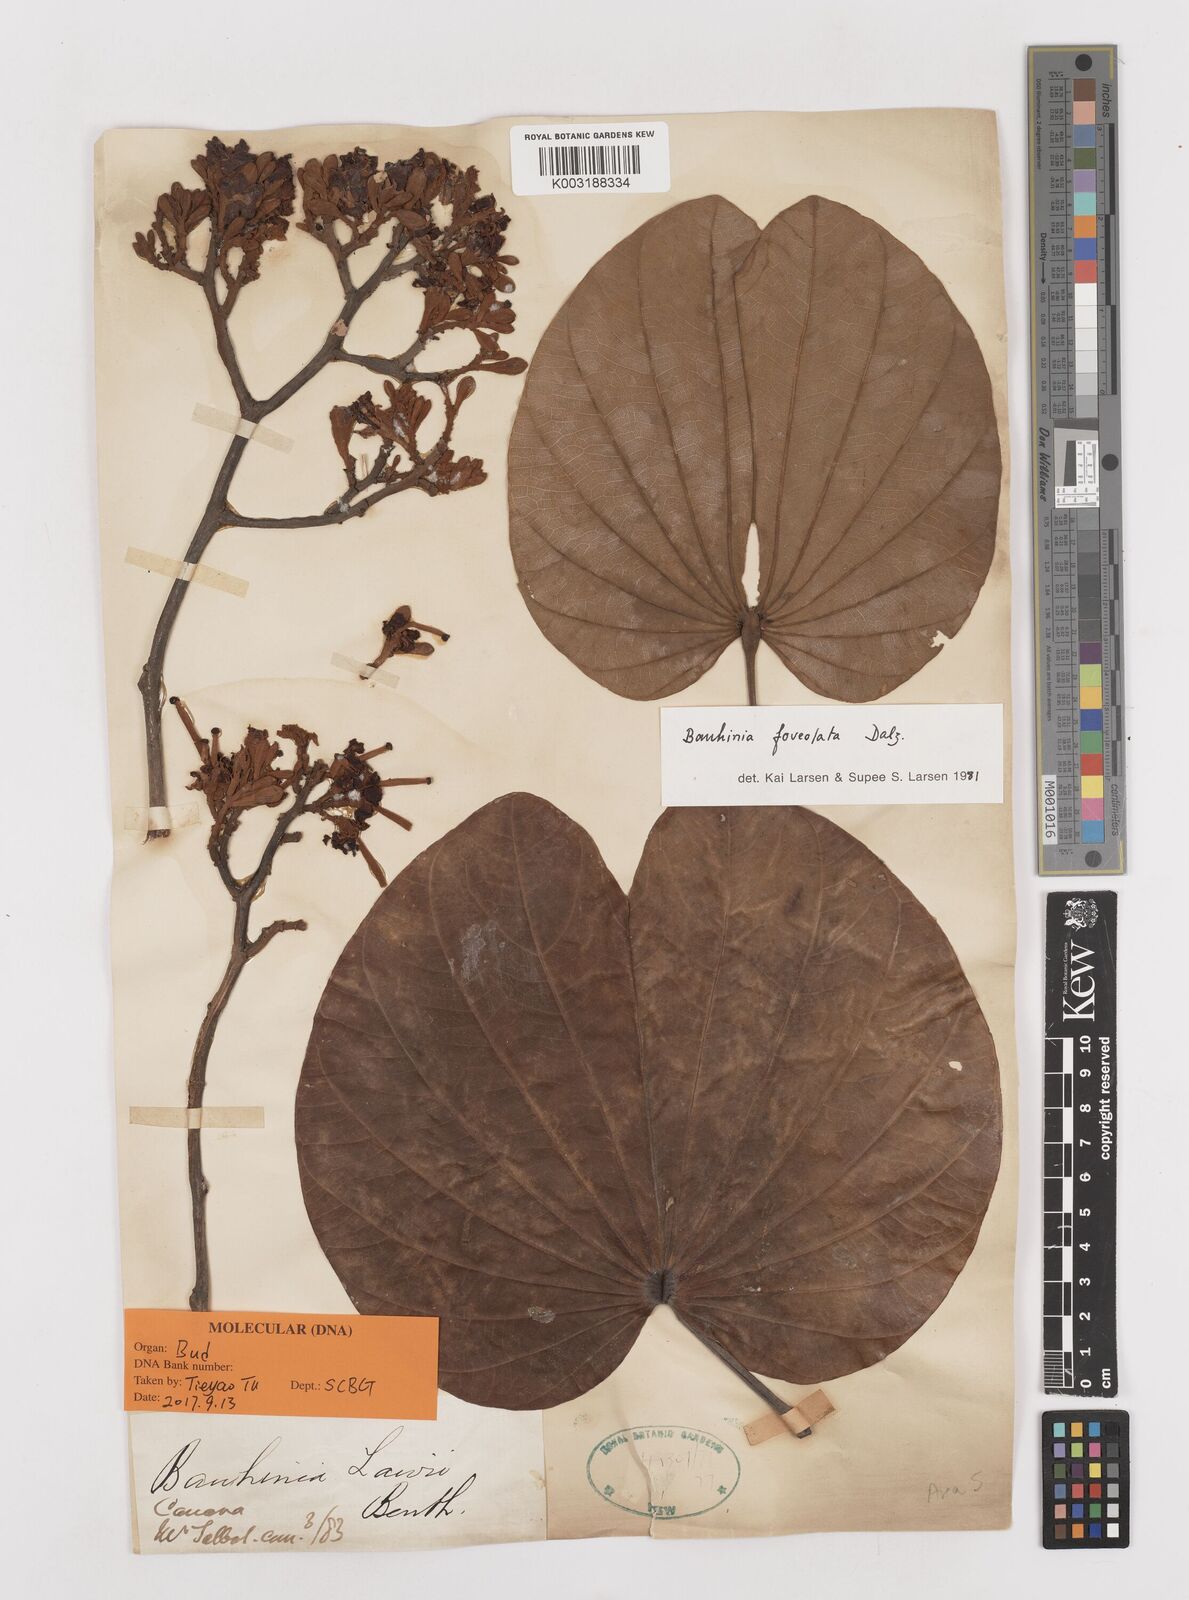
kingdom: Plantae
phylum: Tracheophyta
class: Magnoliopsida
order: Fabales
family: Fabaceae
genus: Piliostigma
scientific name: Piliostigma foveolatum
